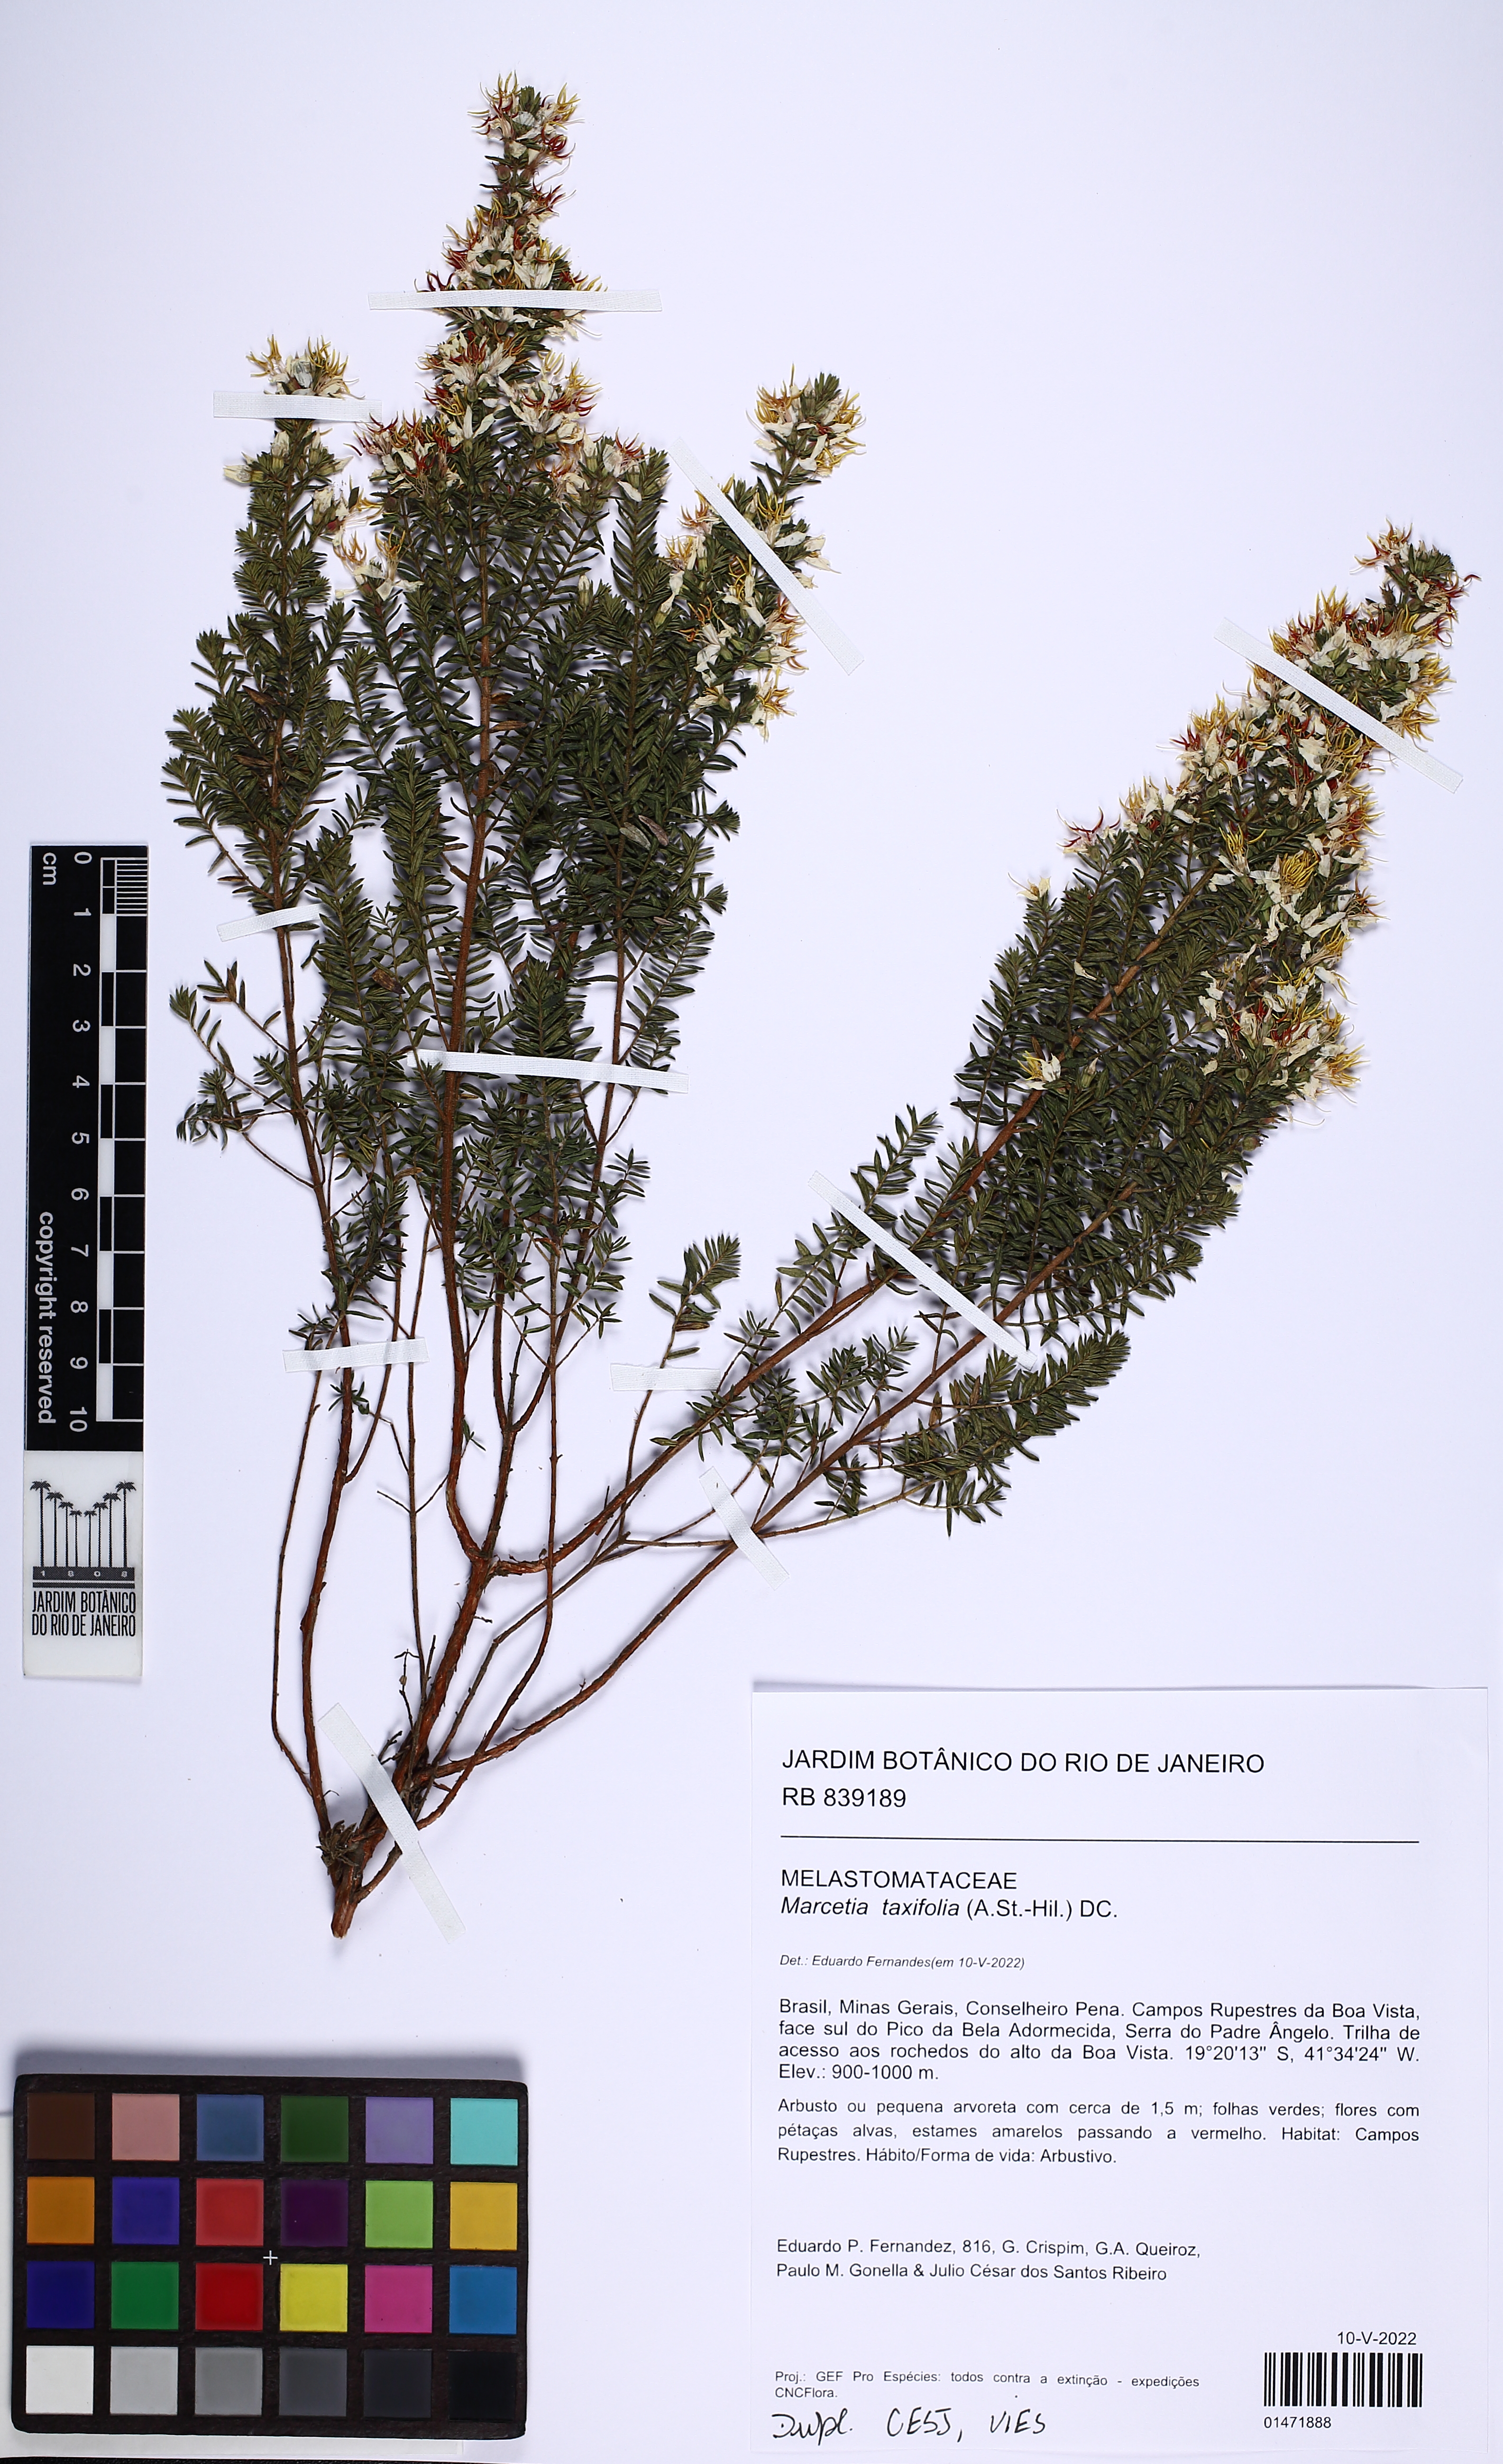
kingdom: Plantae
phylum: Tracheophyta
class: Magnoliopsida
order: Myrtales
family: Melastomataceae
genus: Marcetia
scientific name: Marcetia taxifolia
